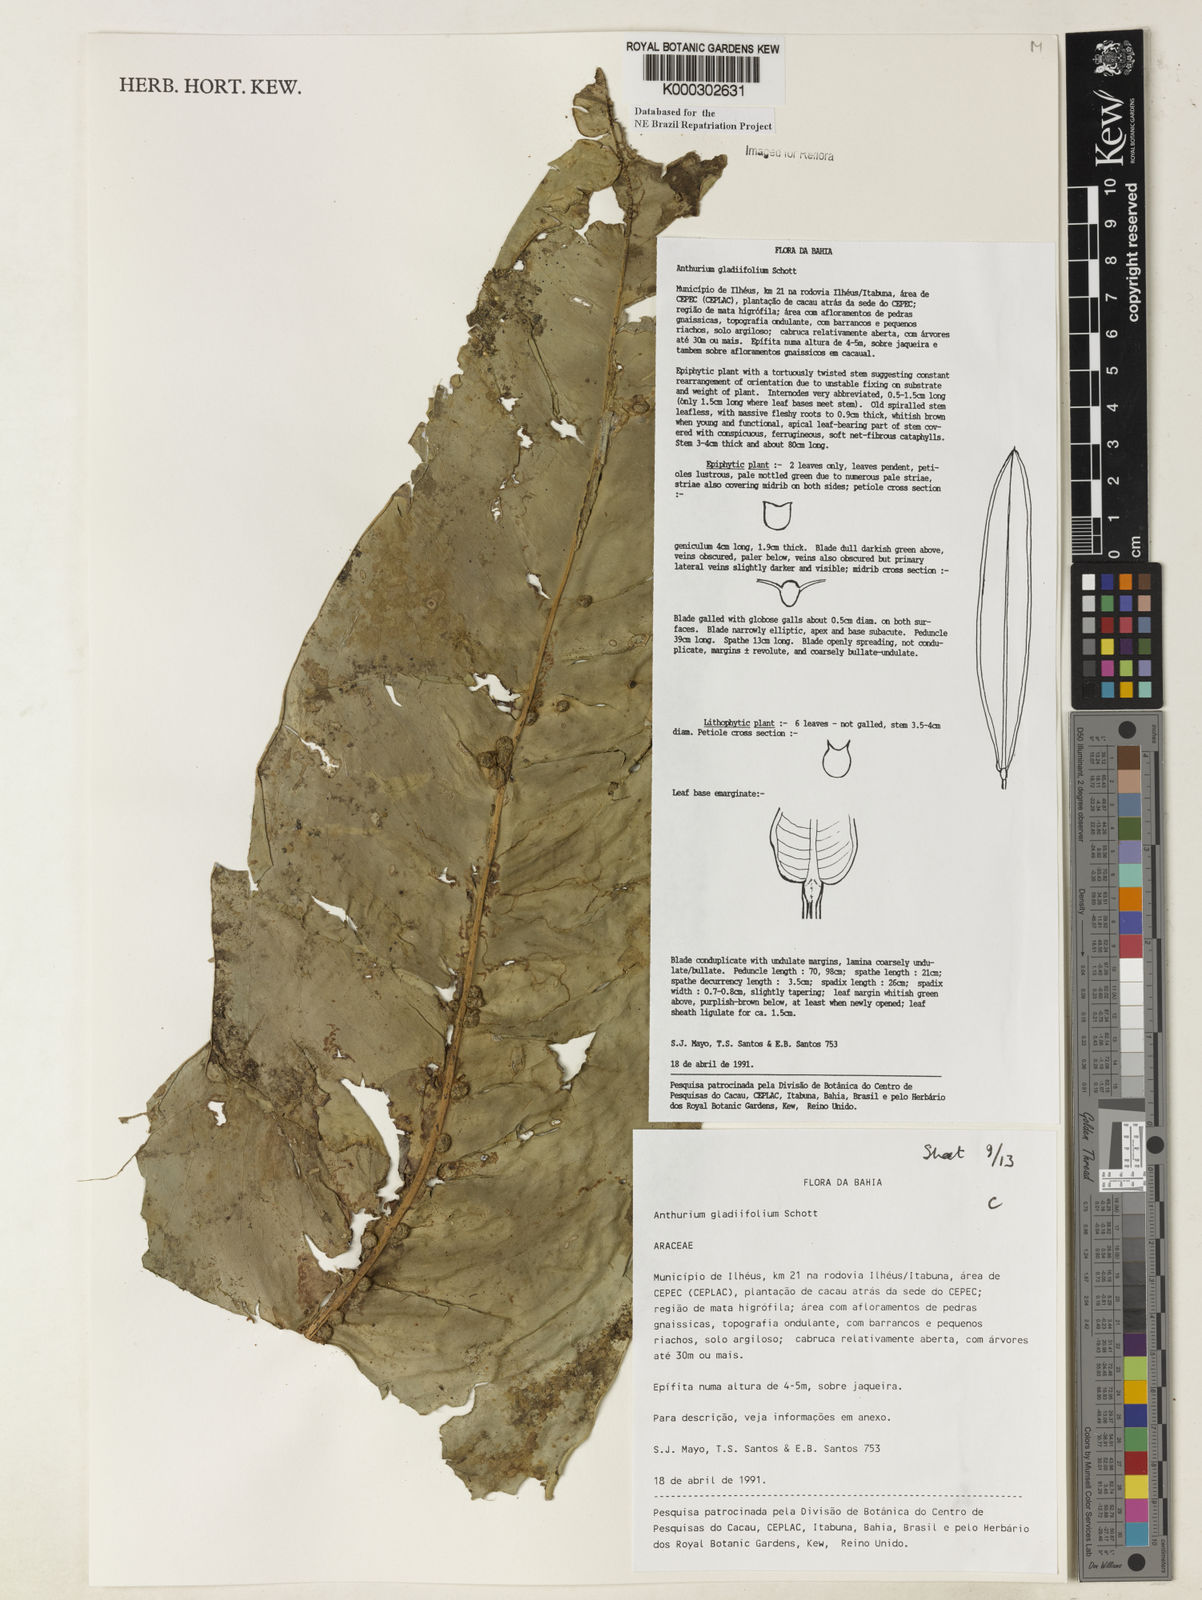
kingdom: Plantae
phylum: Tracheophyta
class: Liliopsida
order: Alismatales
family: Araceae
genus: Anthurium
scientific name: Anthurium gladiifolium
